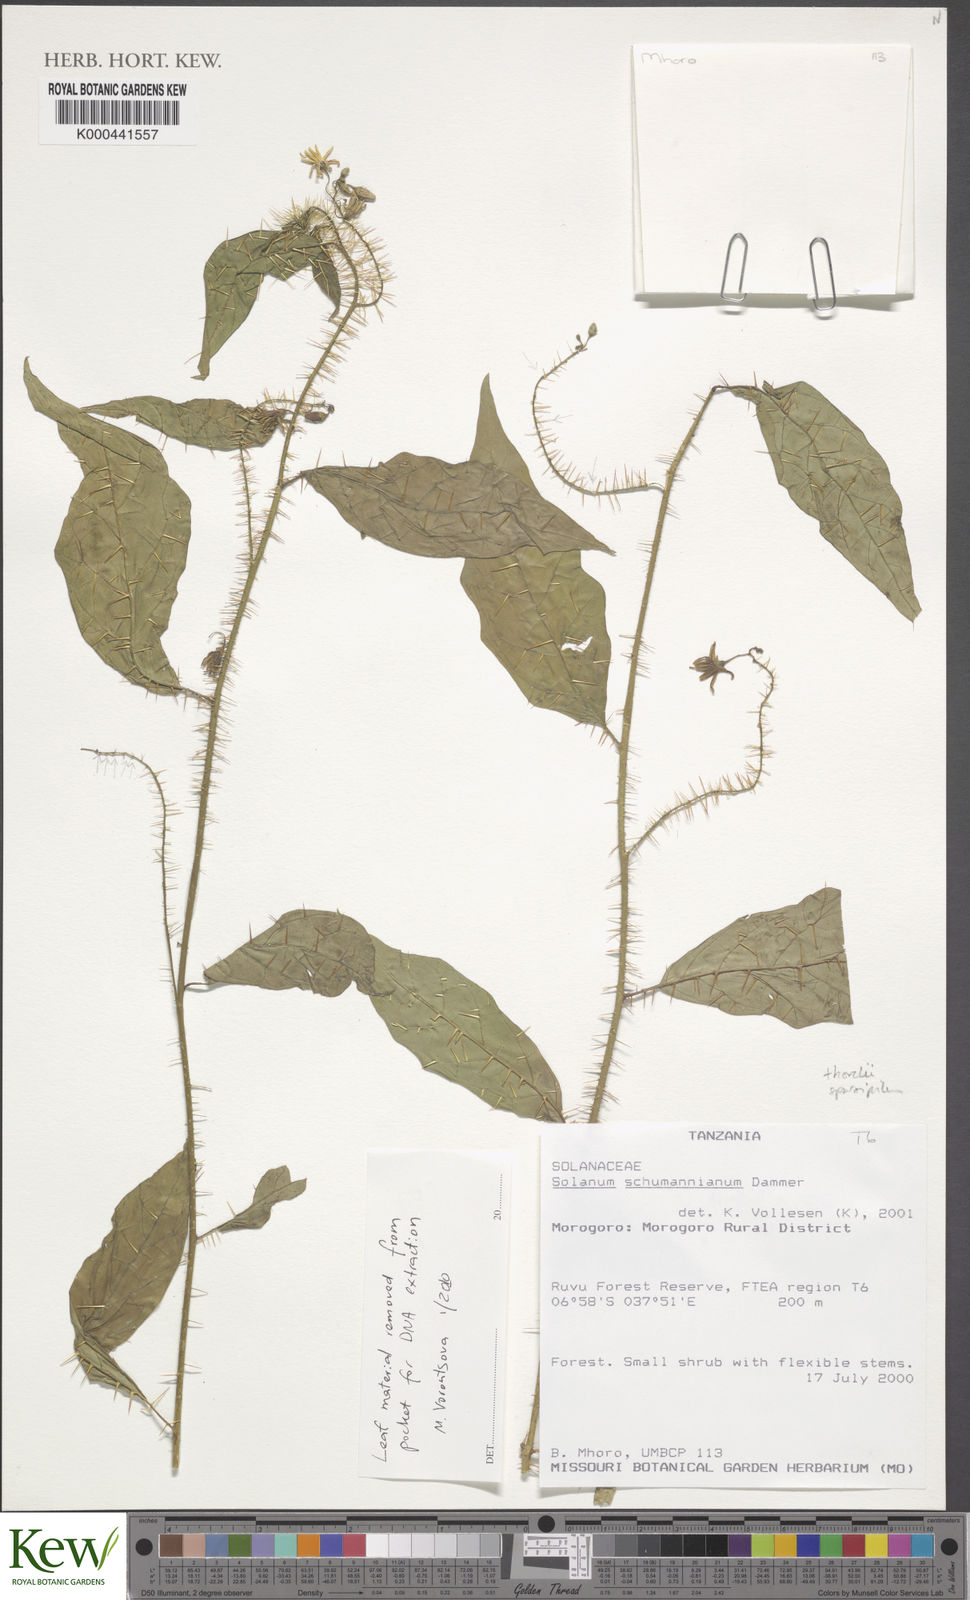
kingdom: Plantae
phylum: Tracheophyta
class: Magnoliopsida
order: Solanales
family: Solanaceae
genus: Solanum
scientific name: Solanum ruvu
